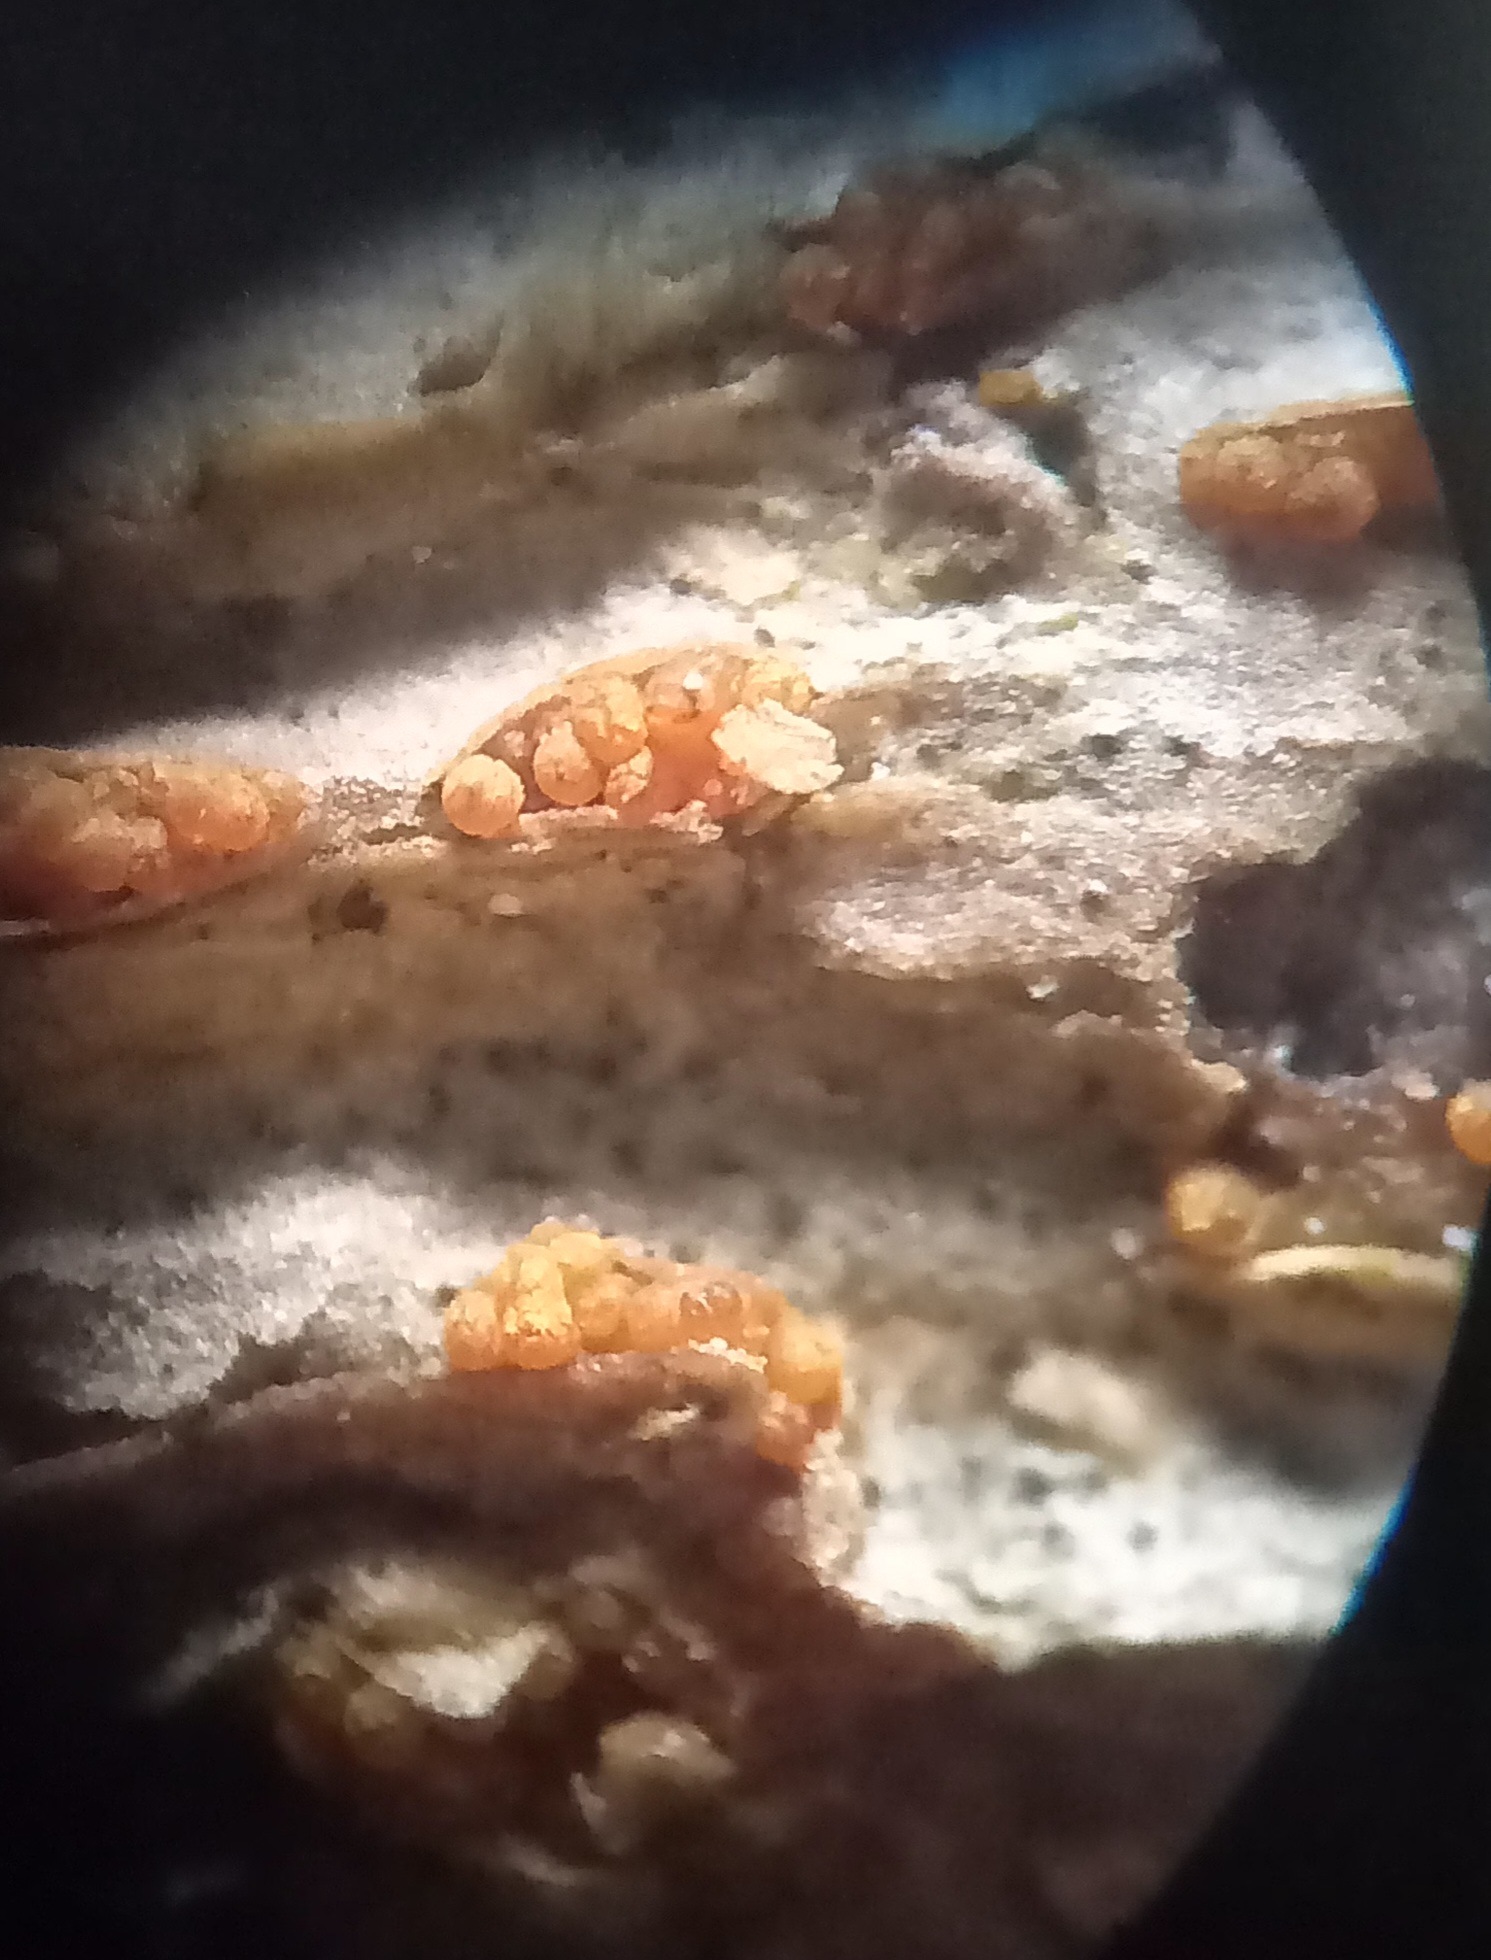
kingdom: Fungi
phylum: Ascomycota
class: Sordariomycetes
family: Thyridiaceae
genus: Thyronectria
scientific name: Thyronectria sinopica
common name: vedbend-cinnobersvamp
